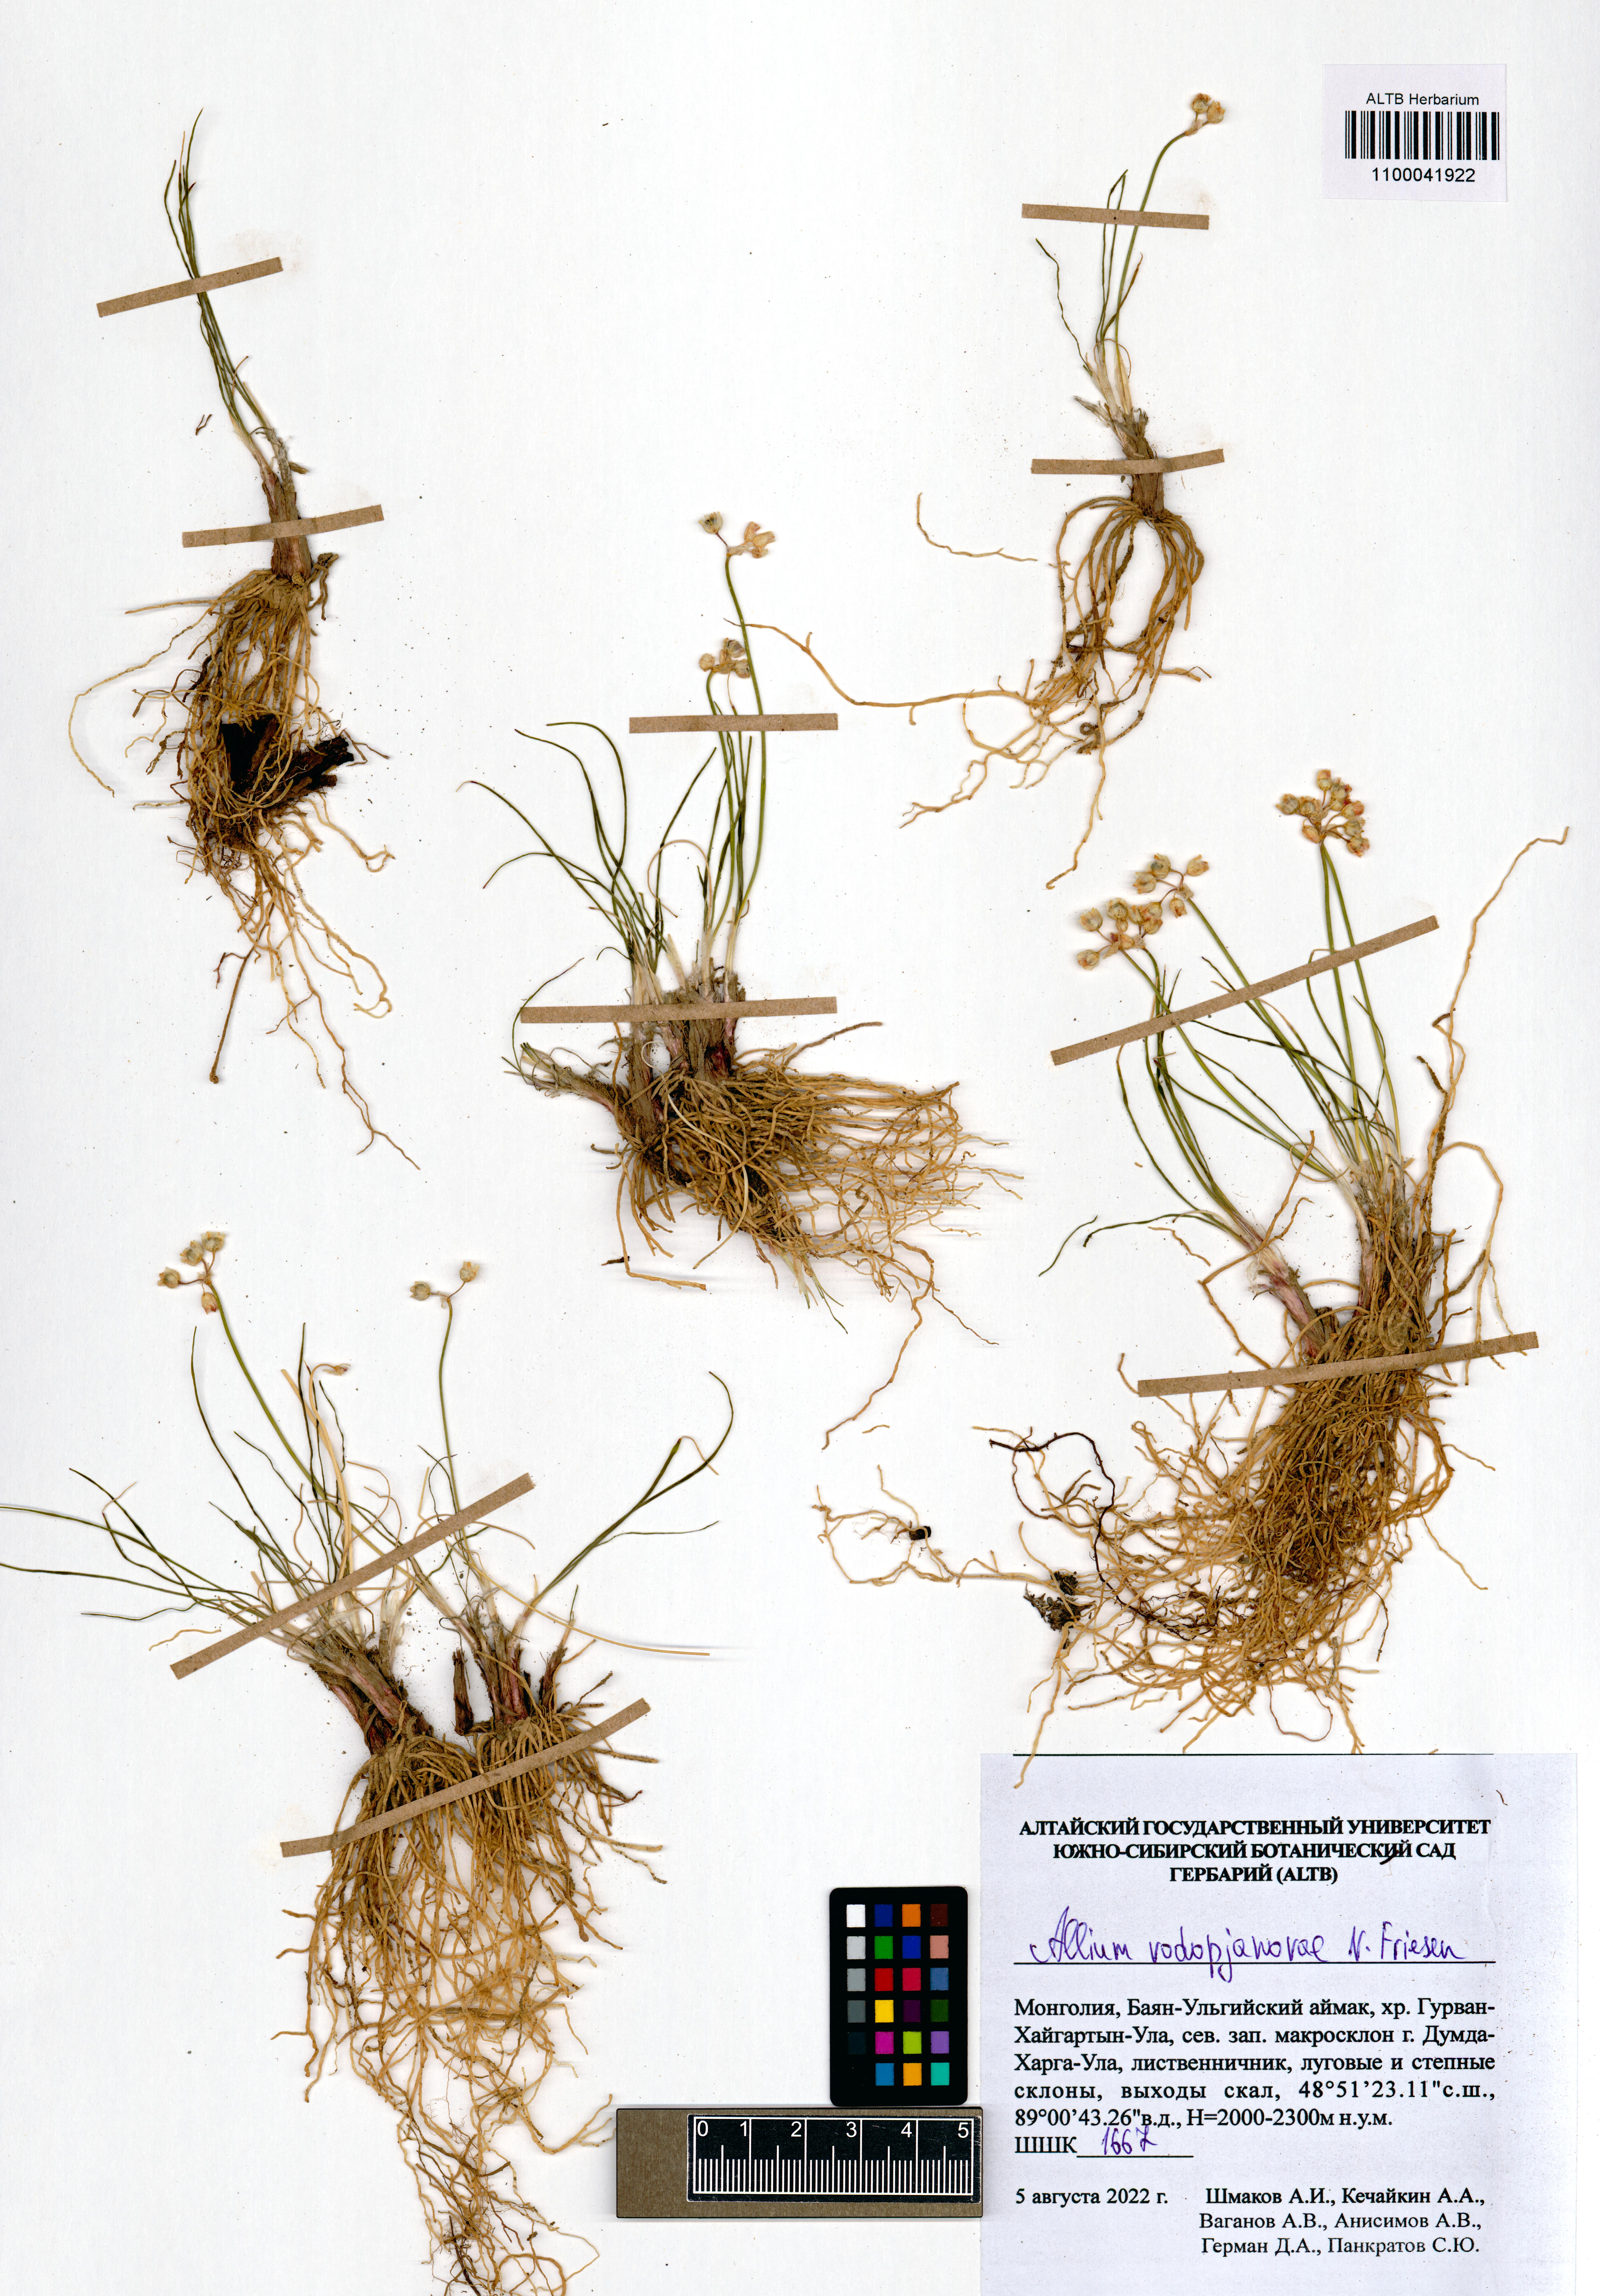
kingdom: Plantae
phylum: Tracheophyta
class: Liliopsida
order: Asparagales
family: Amaryllidaceae
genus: Allium
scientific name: Allium vodopjanovae
